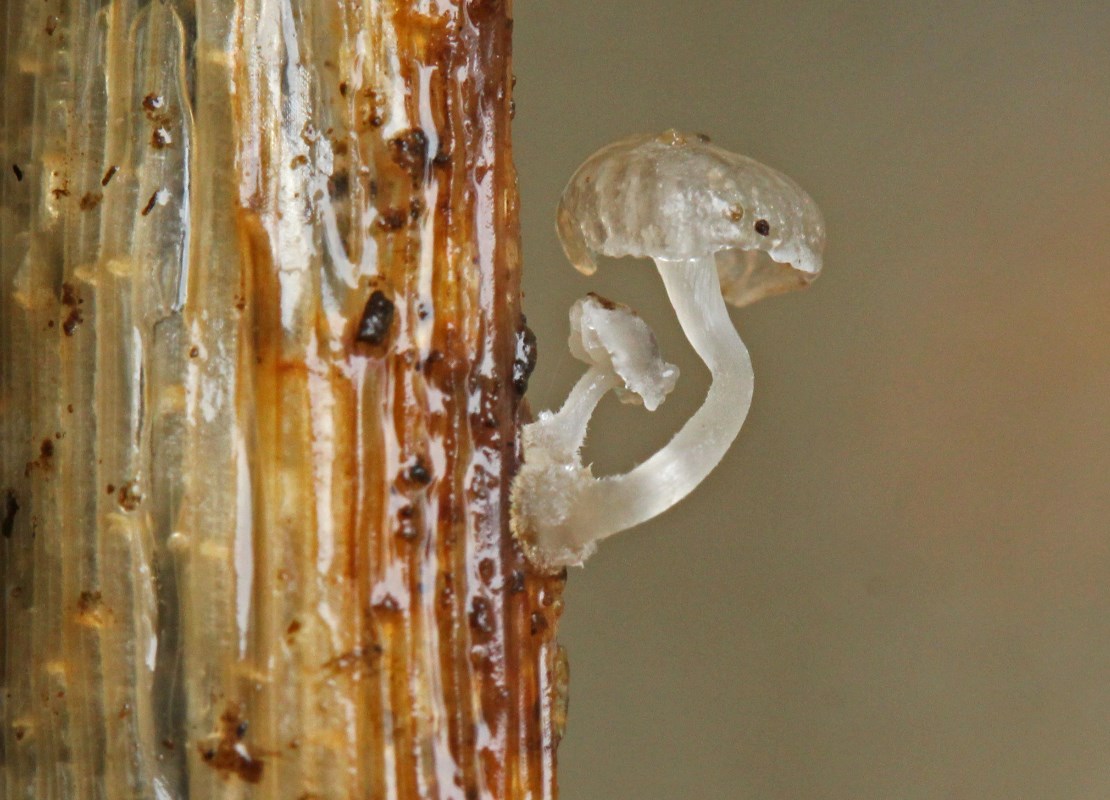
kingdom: Fungi
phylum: Basidiomycota
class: Agaricomycetes
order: Agaricales
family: Mycenaceae
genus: Mycena
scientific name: Mycena bulbosa
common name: siv-huesvamp
